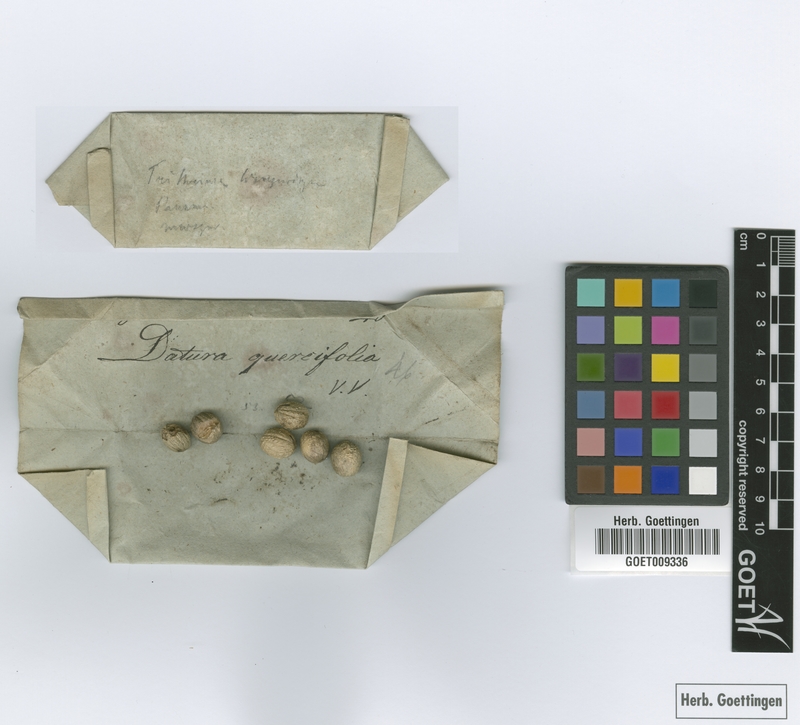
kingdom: Plantae
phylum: Tracheophyta
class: Liliopsida
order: Arecales
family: Arecaceae
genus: Cryosophila
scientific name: Cryosophila warscewiczii
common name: Root-spine palm
